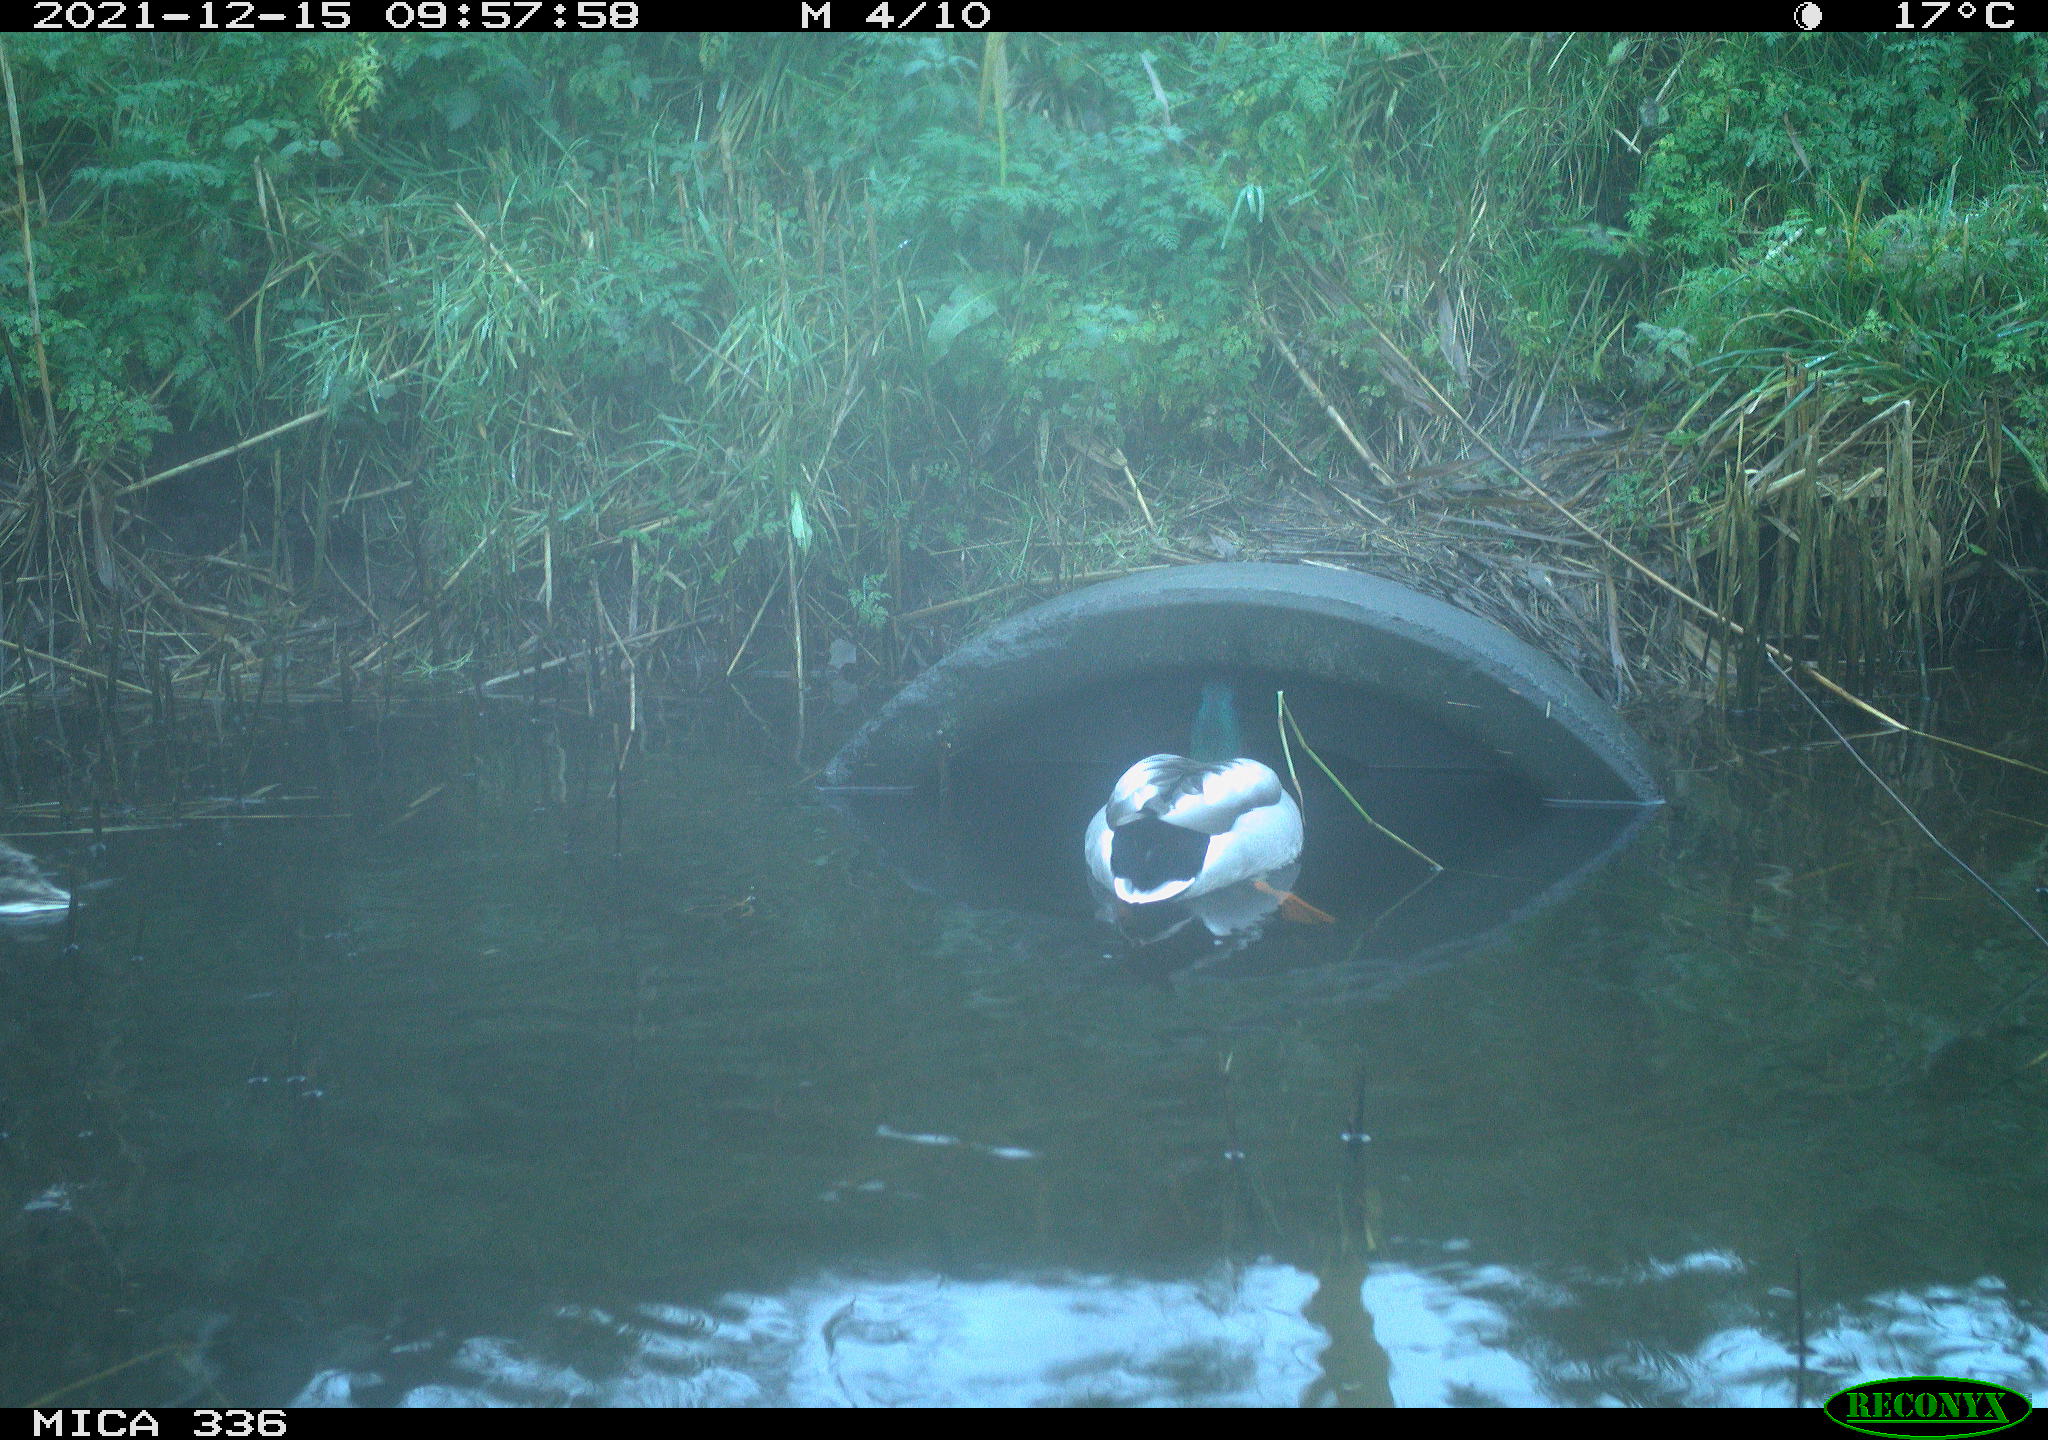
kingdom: Animalia
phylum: Chordata
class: Aves
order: Anseriformes
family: Anatidae
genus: Anas
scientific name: Anas platyrhynchos
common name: Mallard
